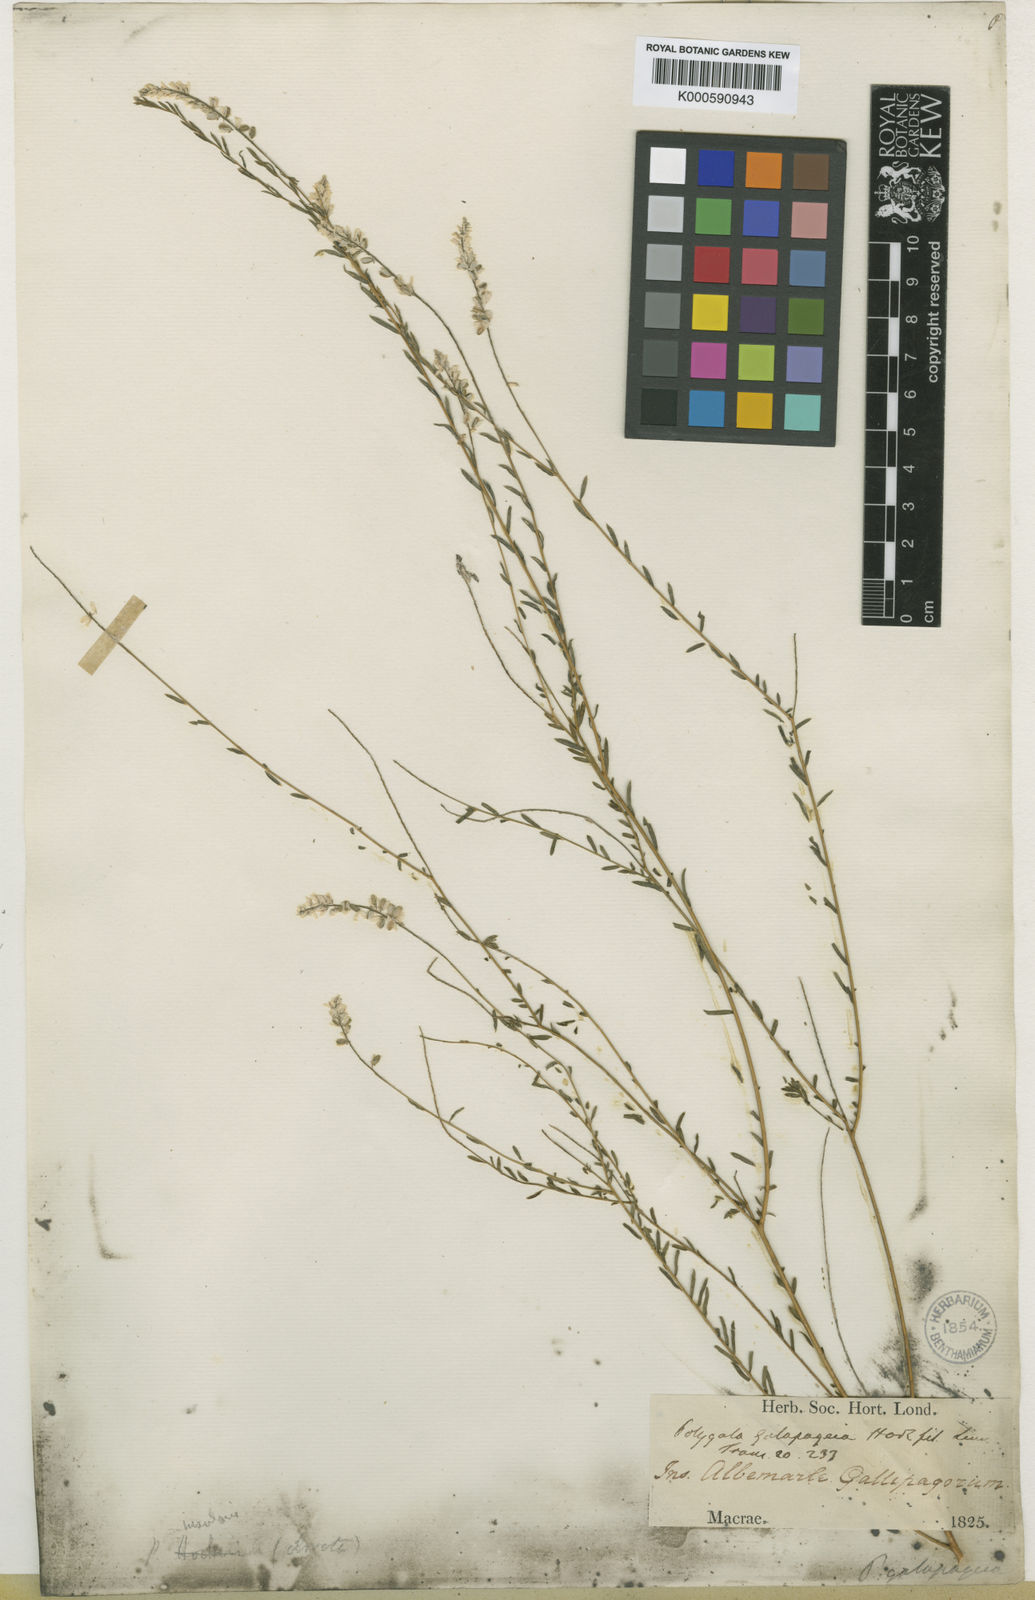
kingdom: Plantae
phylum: Tracheophyta
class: Magnoliopsida
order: Fabales
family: Polygalaceae
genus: Polygala
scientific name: Polygala galapageia
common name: Galapagos milkwort
